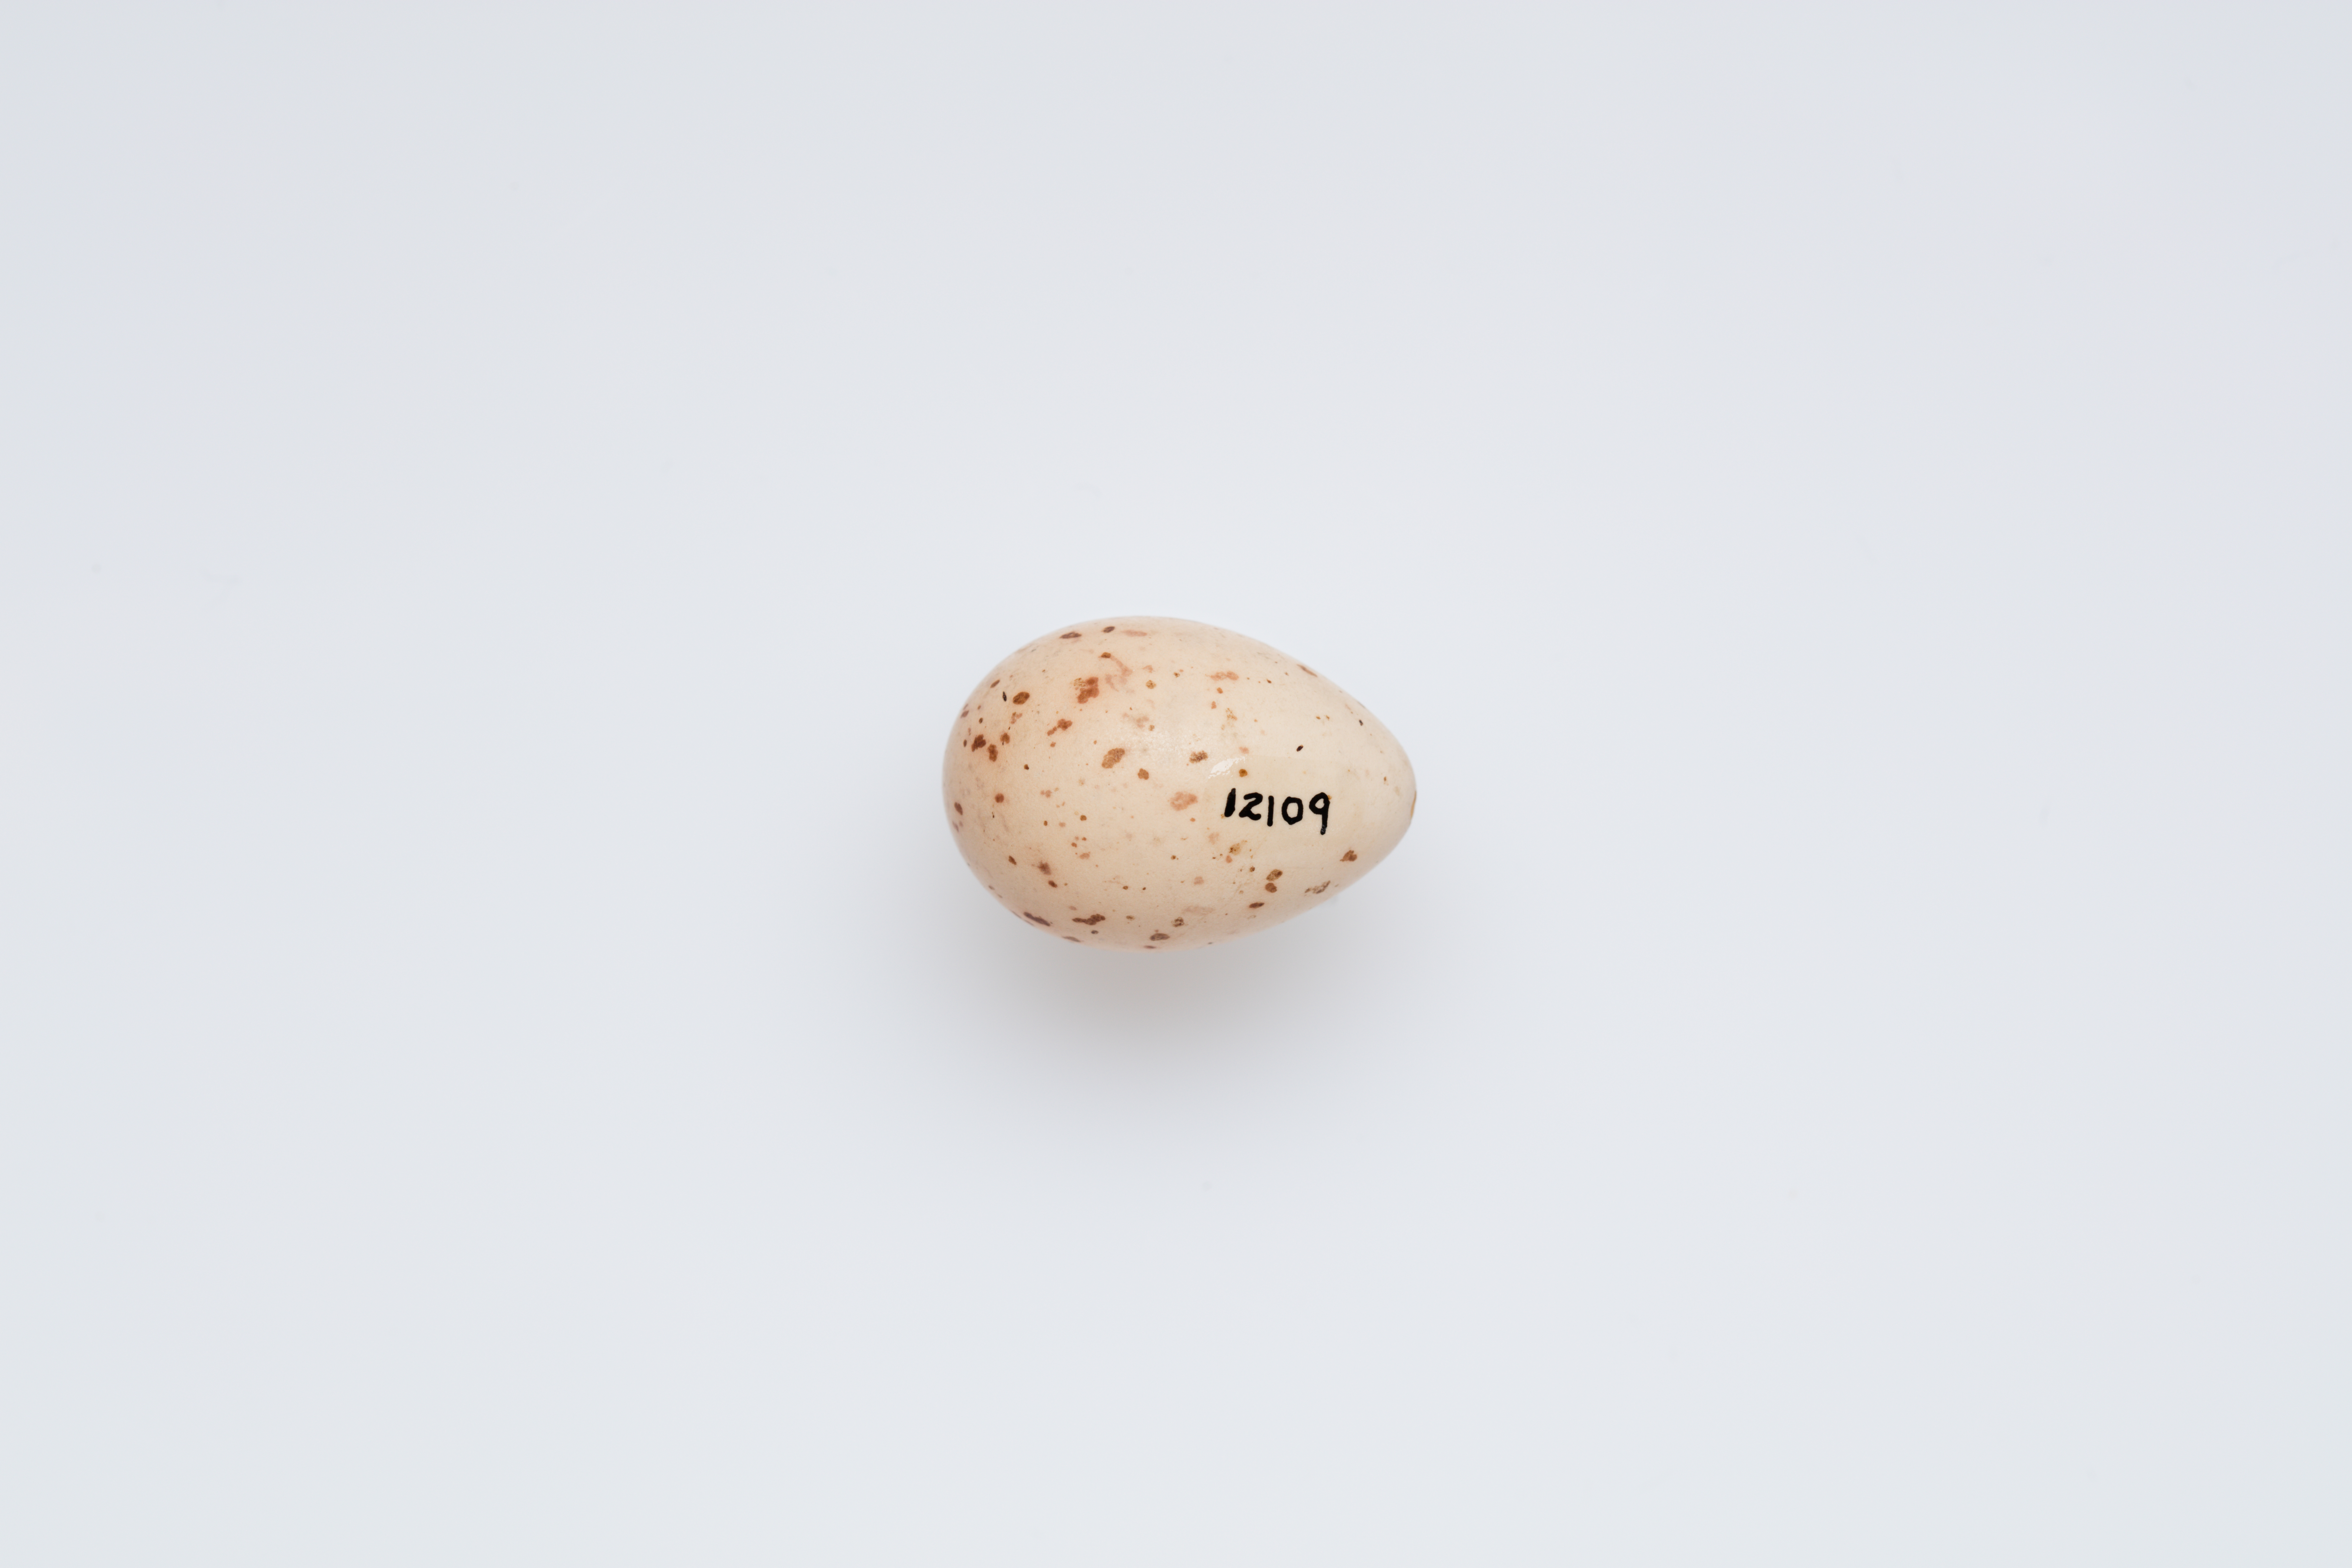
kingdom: Animalia
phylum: Chordata
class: Aves
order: Passeriformes
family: Meliphagidae
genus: Acanthorhynchus
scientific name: Acanthorhynchus superciliosus
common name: Western spinebill
